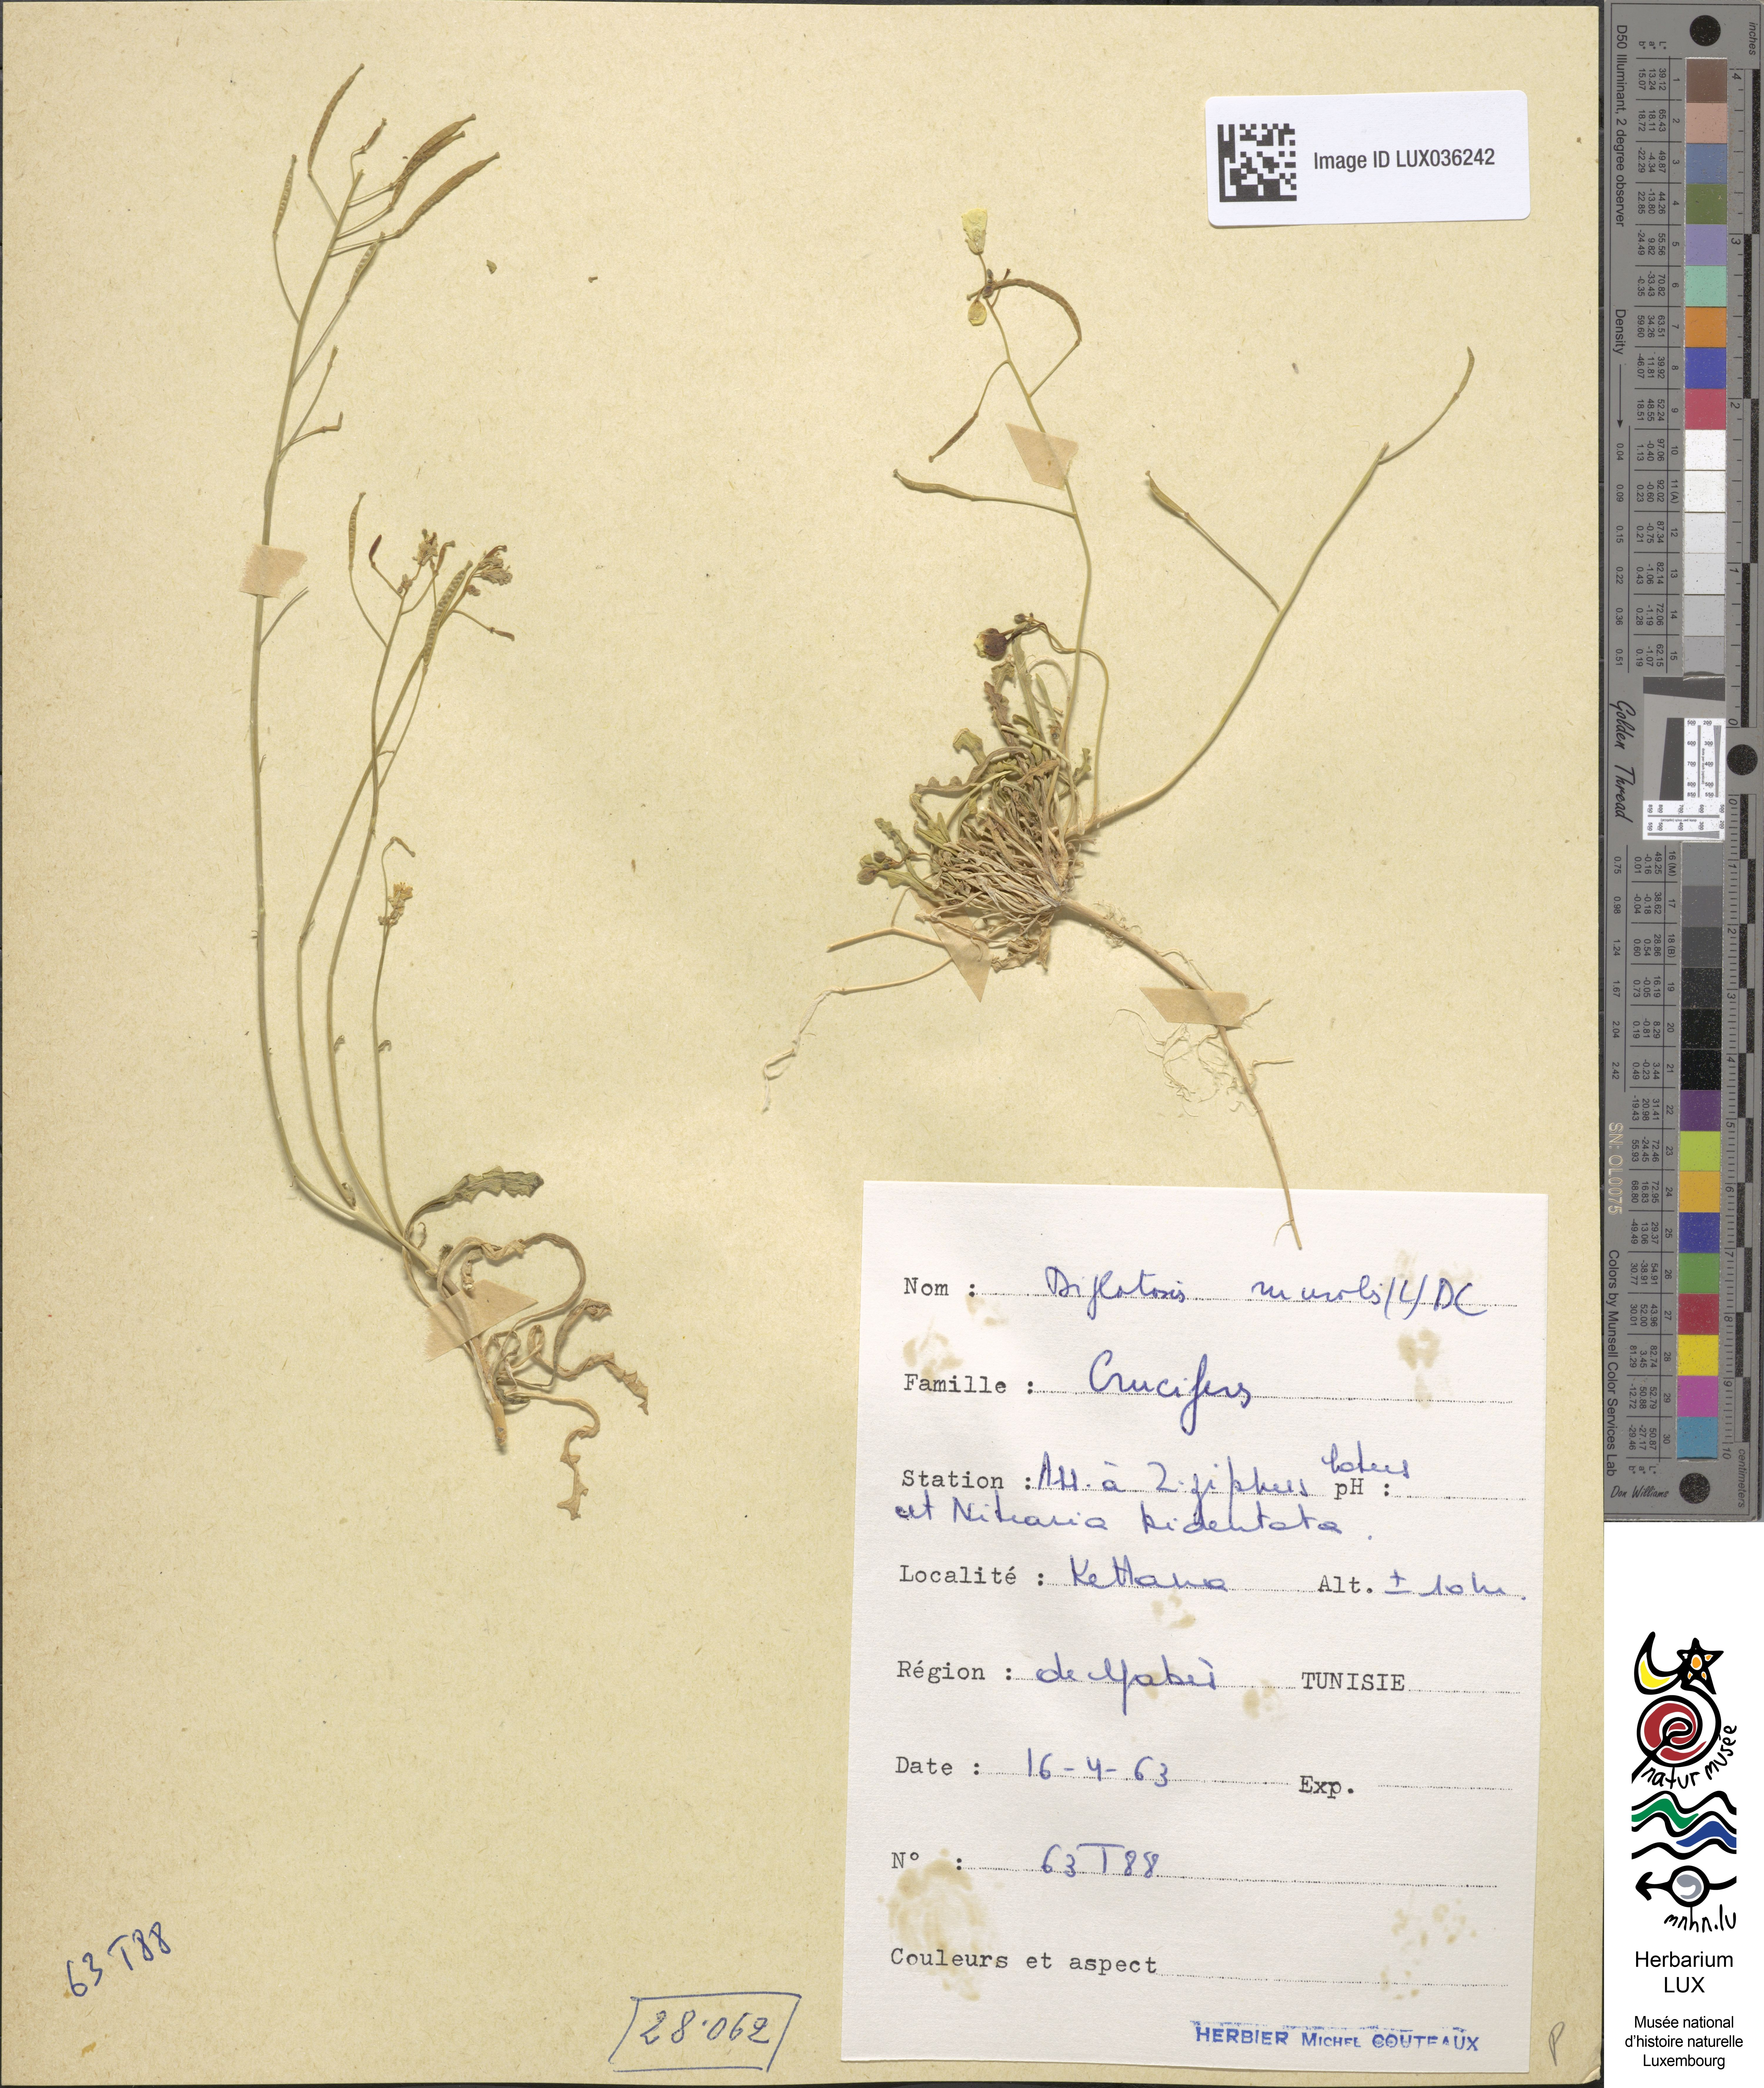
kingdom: Plantae
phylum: Tracheophyta
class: Magnoliopsida
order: Brassicales
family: Brassicaceae
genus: Diplotaxis
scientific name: Diplotaxis muralis
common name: Annual wall-rocket
